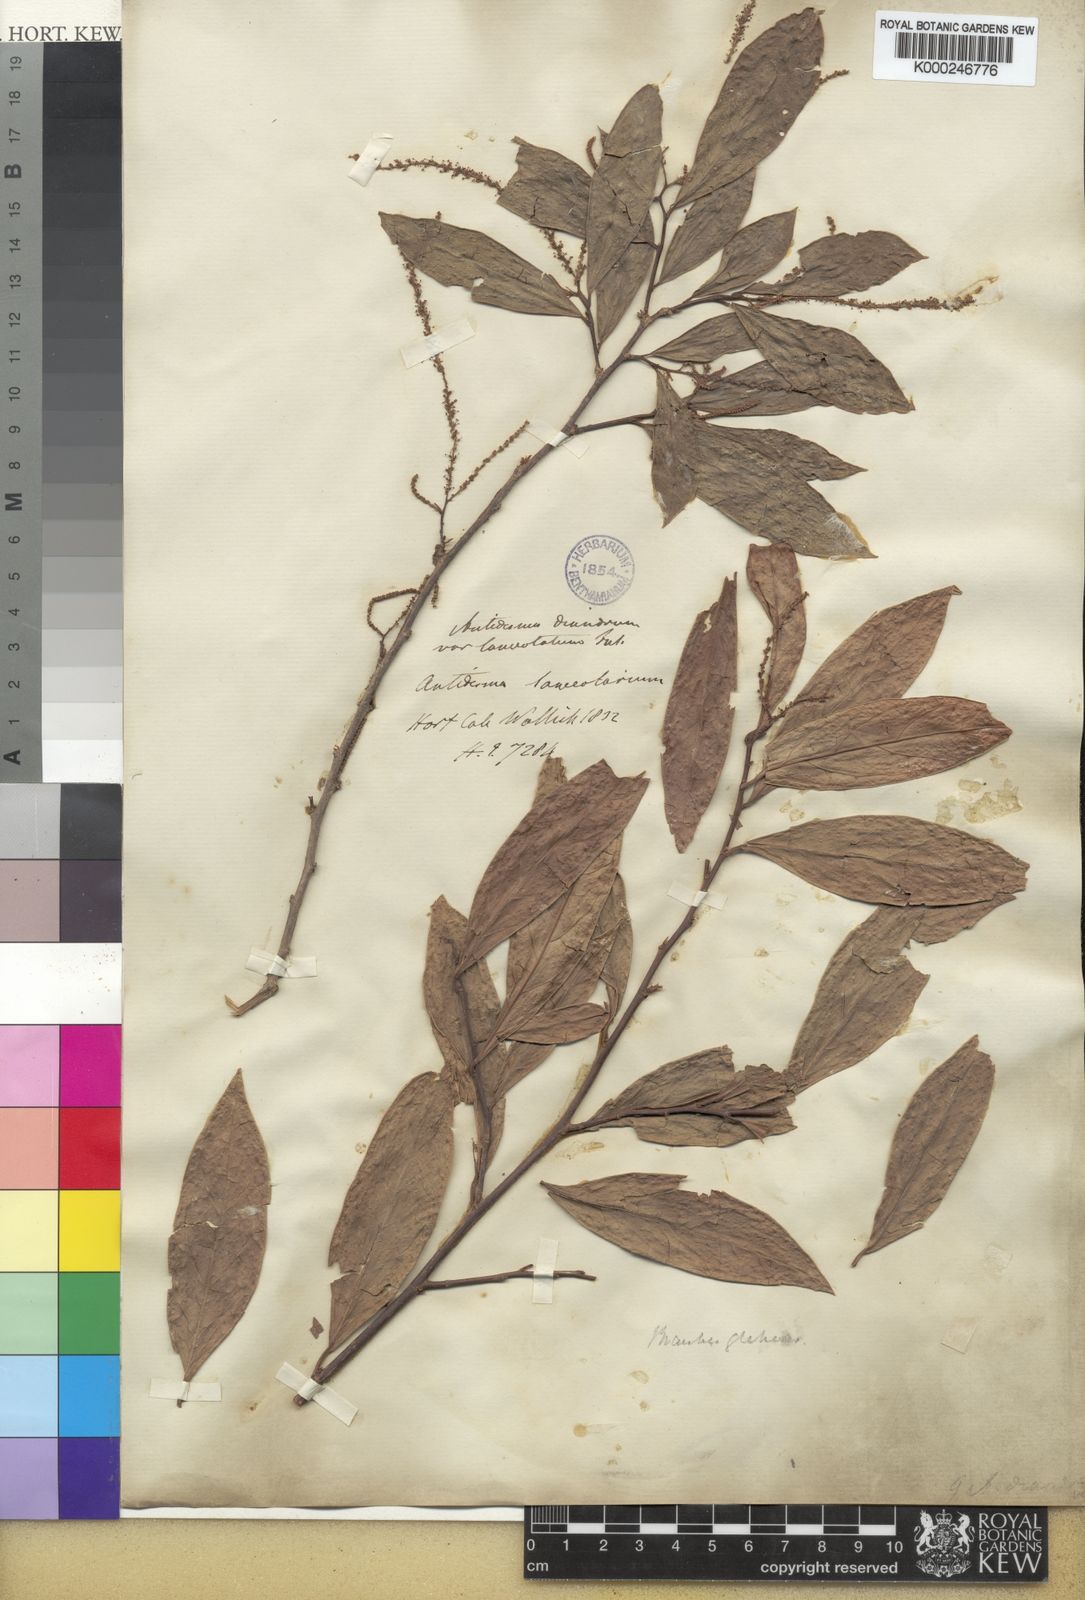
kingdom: Plantae
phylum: Tracheophyta
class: Magnoliopsida
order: Malpighiales
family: Phyllanthaceae
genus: Antidesma
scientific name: Antidesma acidum
